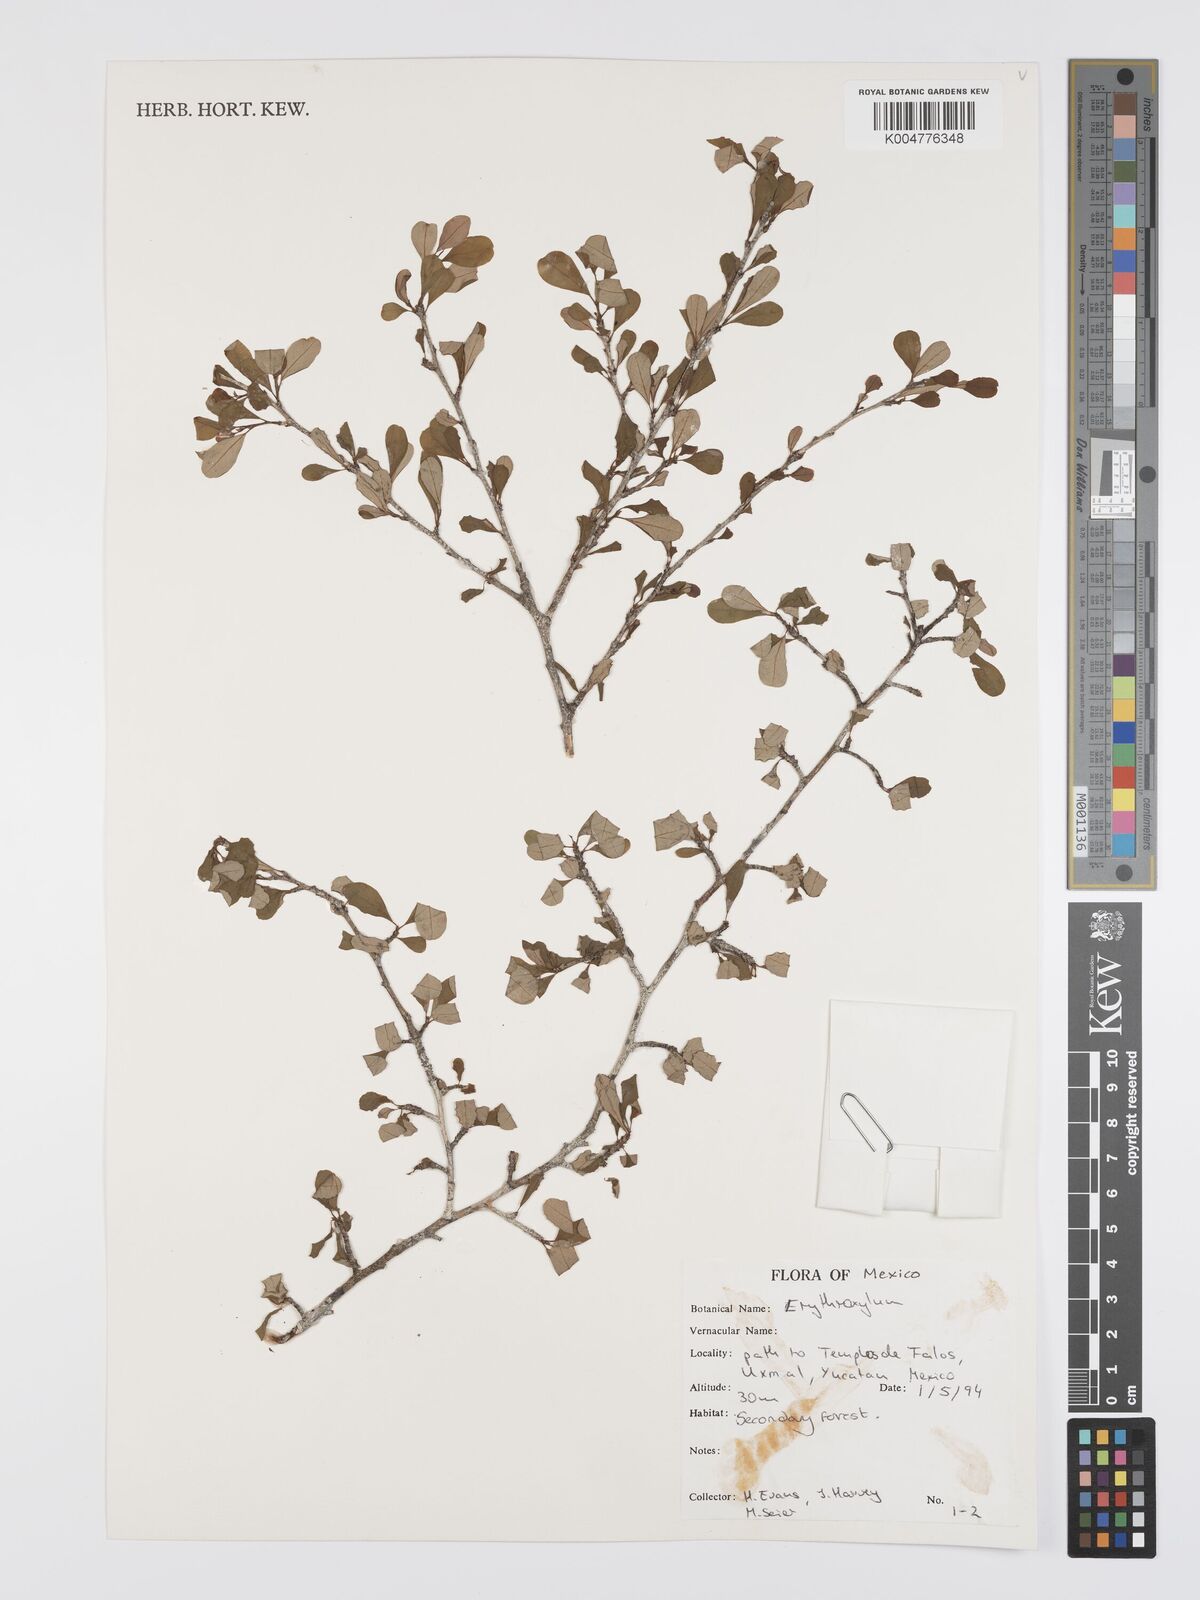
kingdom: Plantae
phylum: Tracheophyta
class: Magnoliopsida
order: Malpighiales
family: Erythroxylaceae
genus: Erythroxylum
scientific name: Erythroxylum
